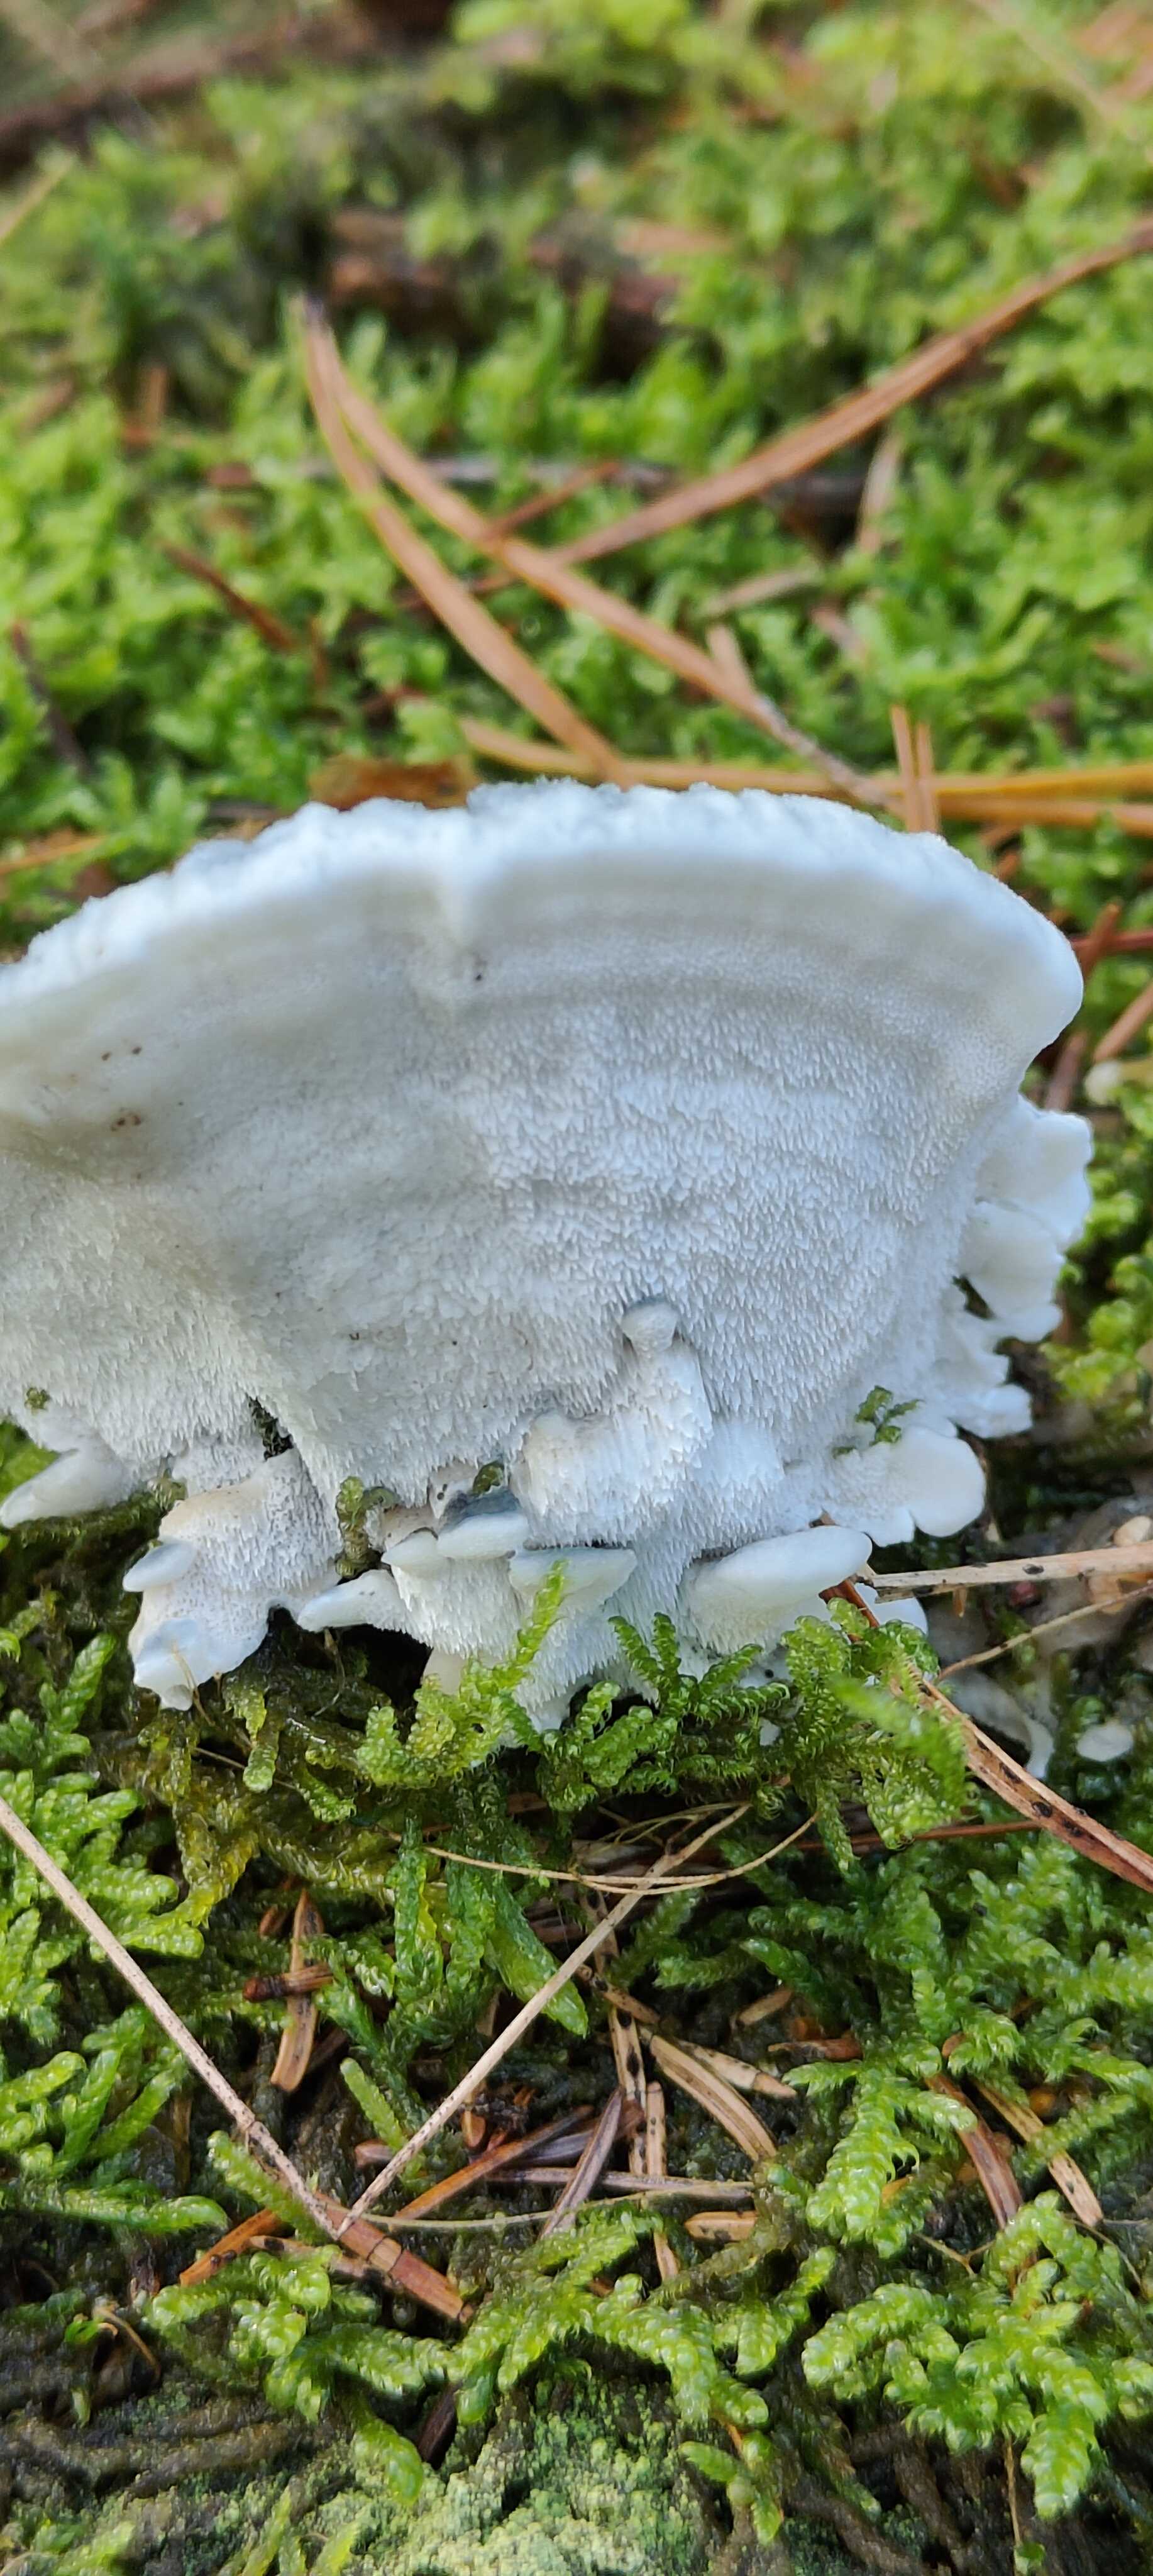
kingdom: Fungi
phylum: Basidiomycota
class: Agaricomycetes
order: Polyporales
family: Polyporaceae
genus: Cyanosporus
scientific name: Cyanosporus caesius
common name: blålig kødporesvamp
